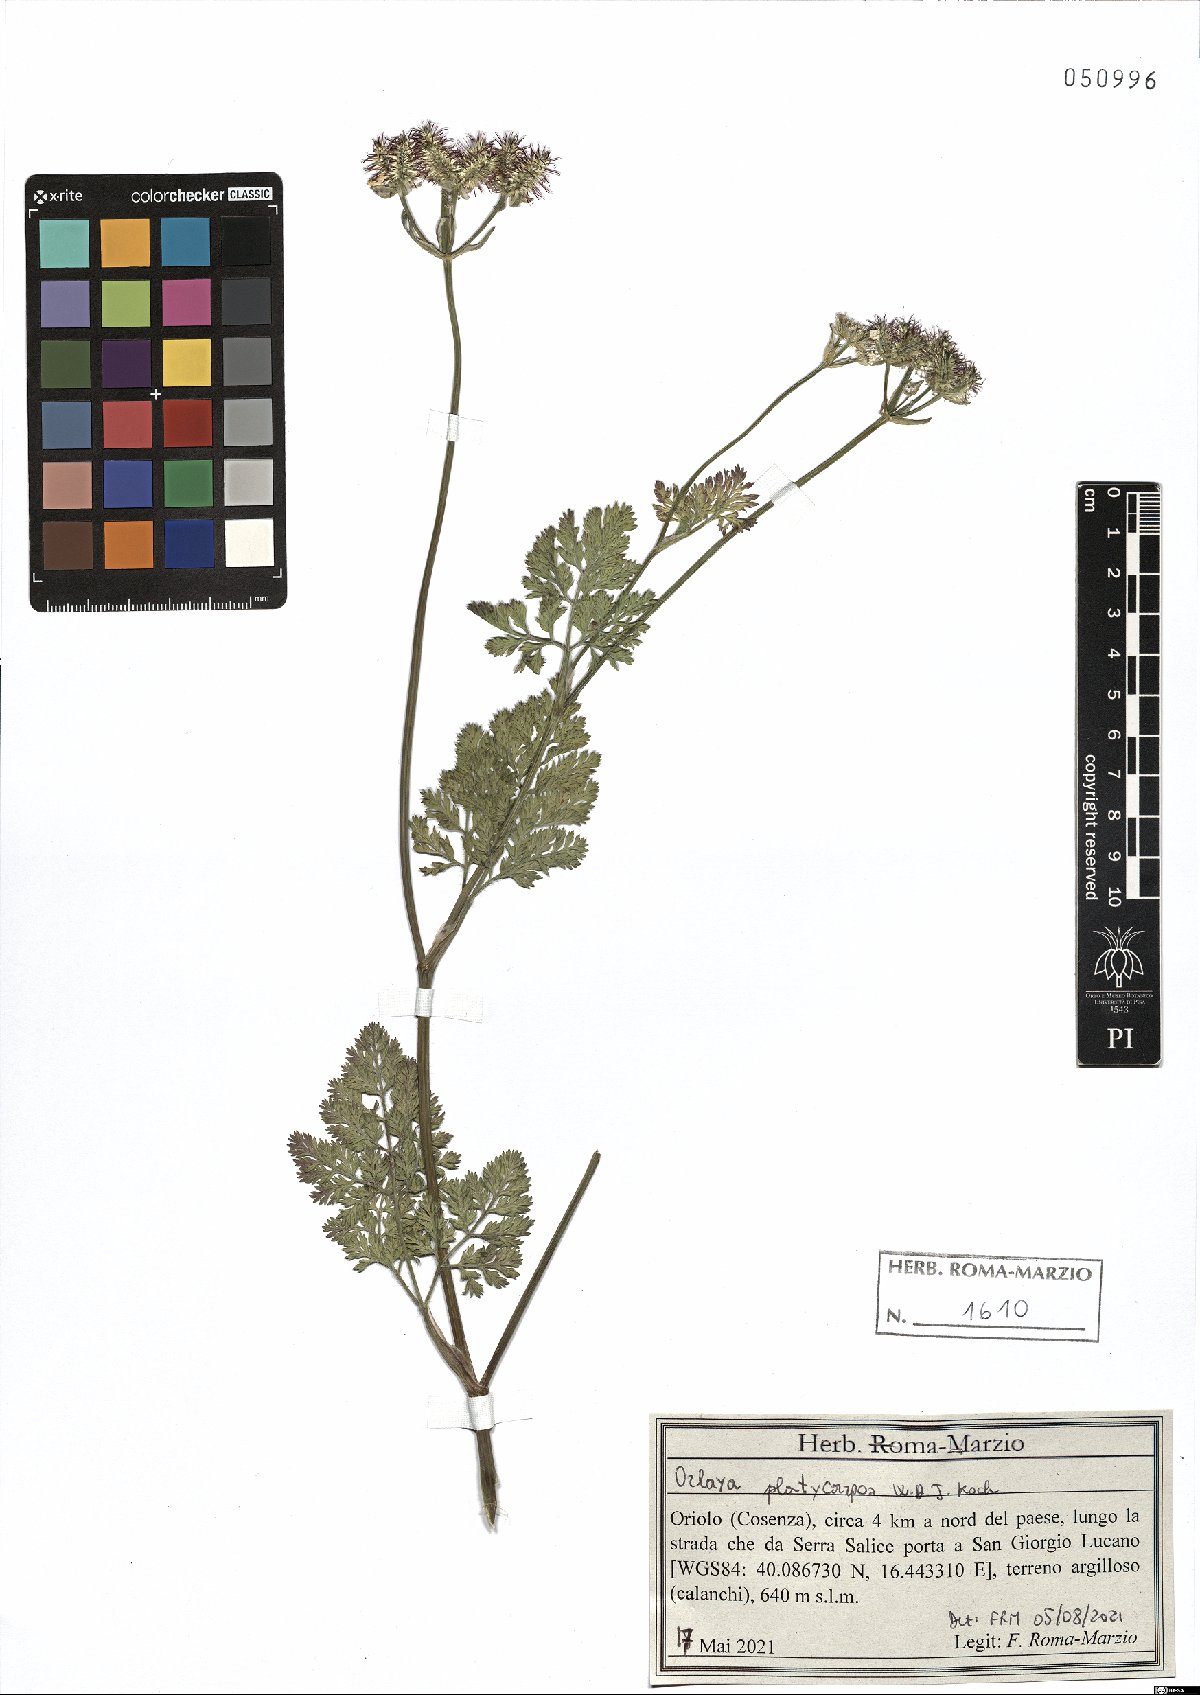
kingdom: Plantae
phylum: Tracheophyta
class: Magnoliopsida
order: Apiales
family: Apiaceae
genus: Orlaya
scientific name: Orlaya daucoides
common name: Flat-fruit orlaya
